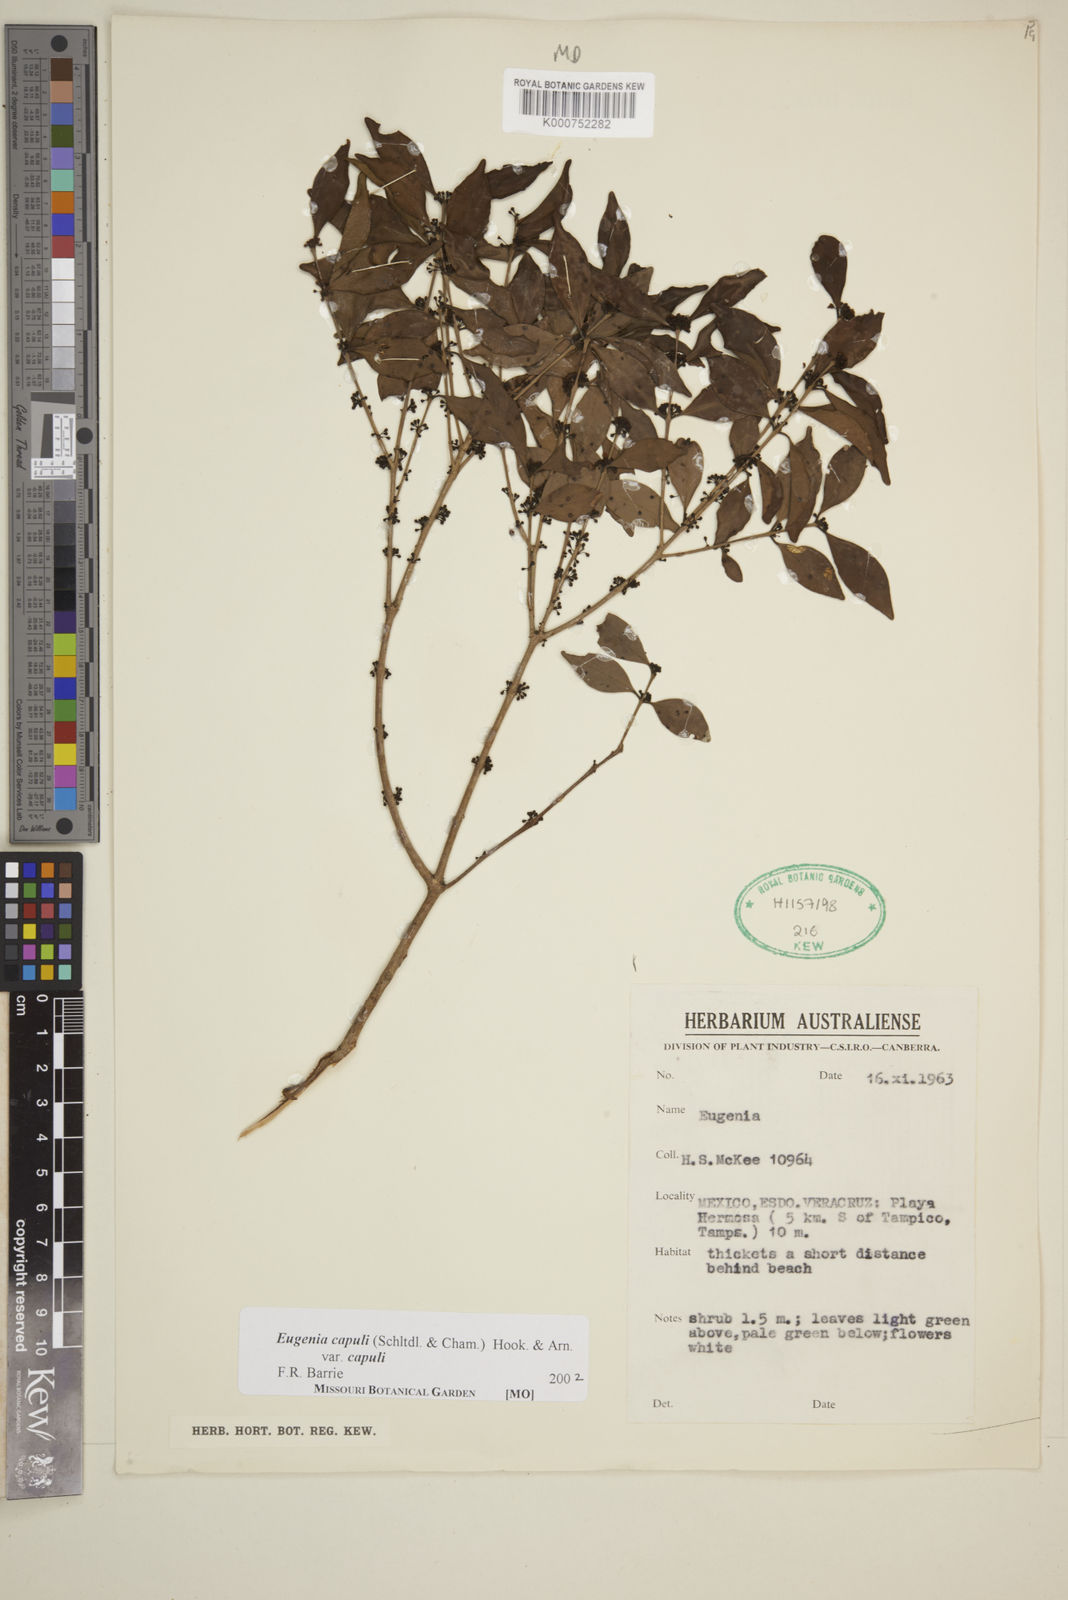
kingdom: Plantae
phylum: Tracheophyta
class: Magnoliopsida
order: Myrtales
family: Myrtaceae
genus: Eugenia
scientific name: Eugenia capuli
